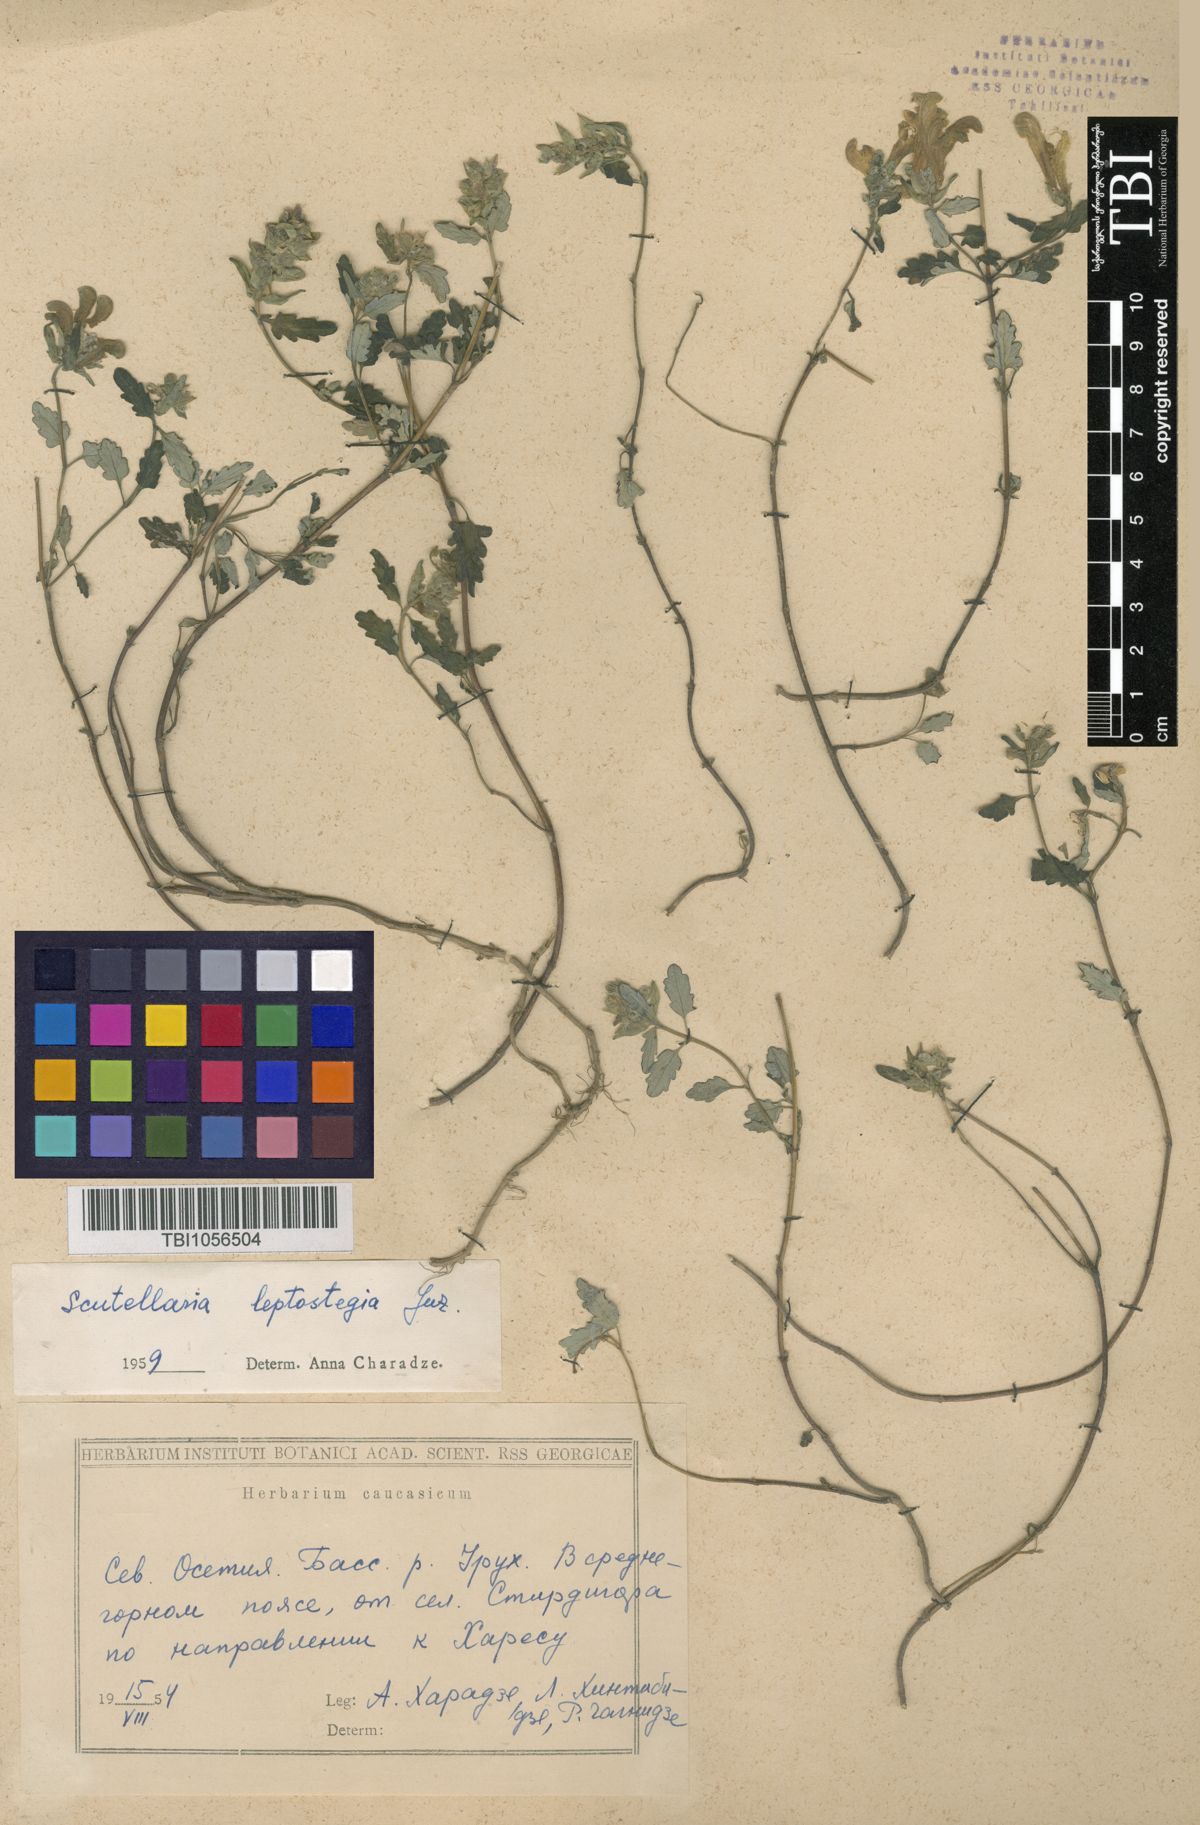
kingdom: Plantae
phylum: Tracheophyta
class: Magnoliopsida
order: Lamiales
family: Lamiaceae
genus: Scutellaria
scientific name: Scutellaria leptostegia
